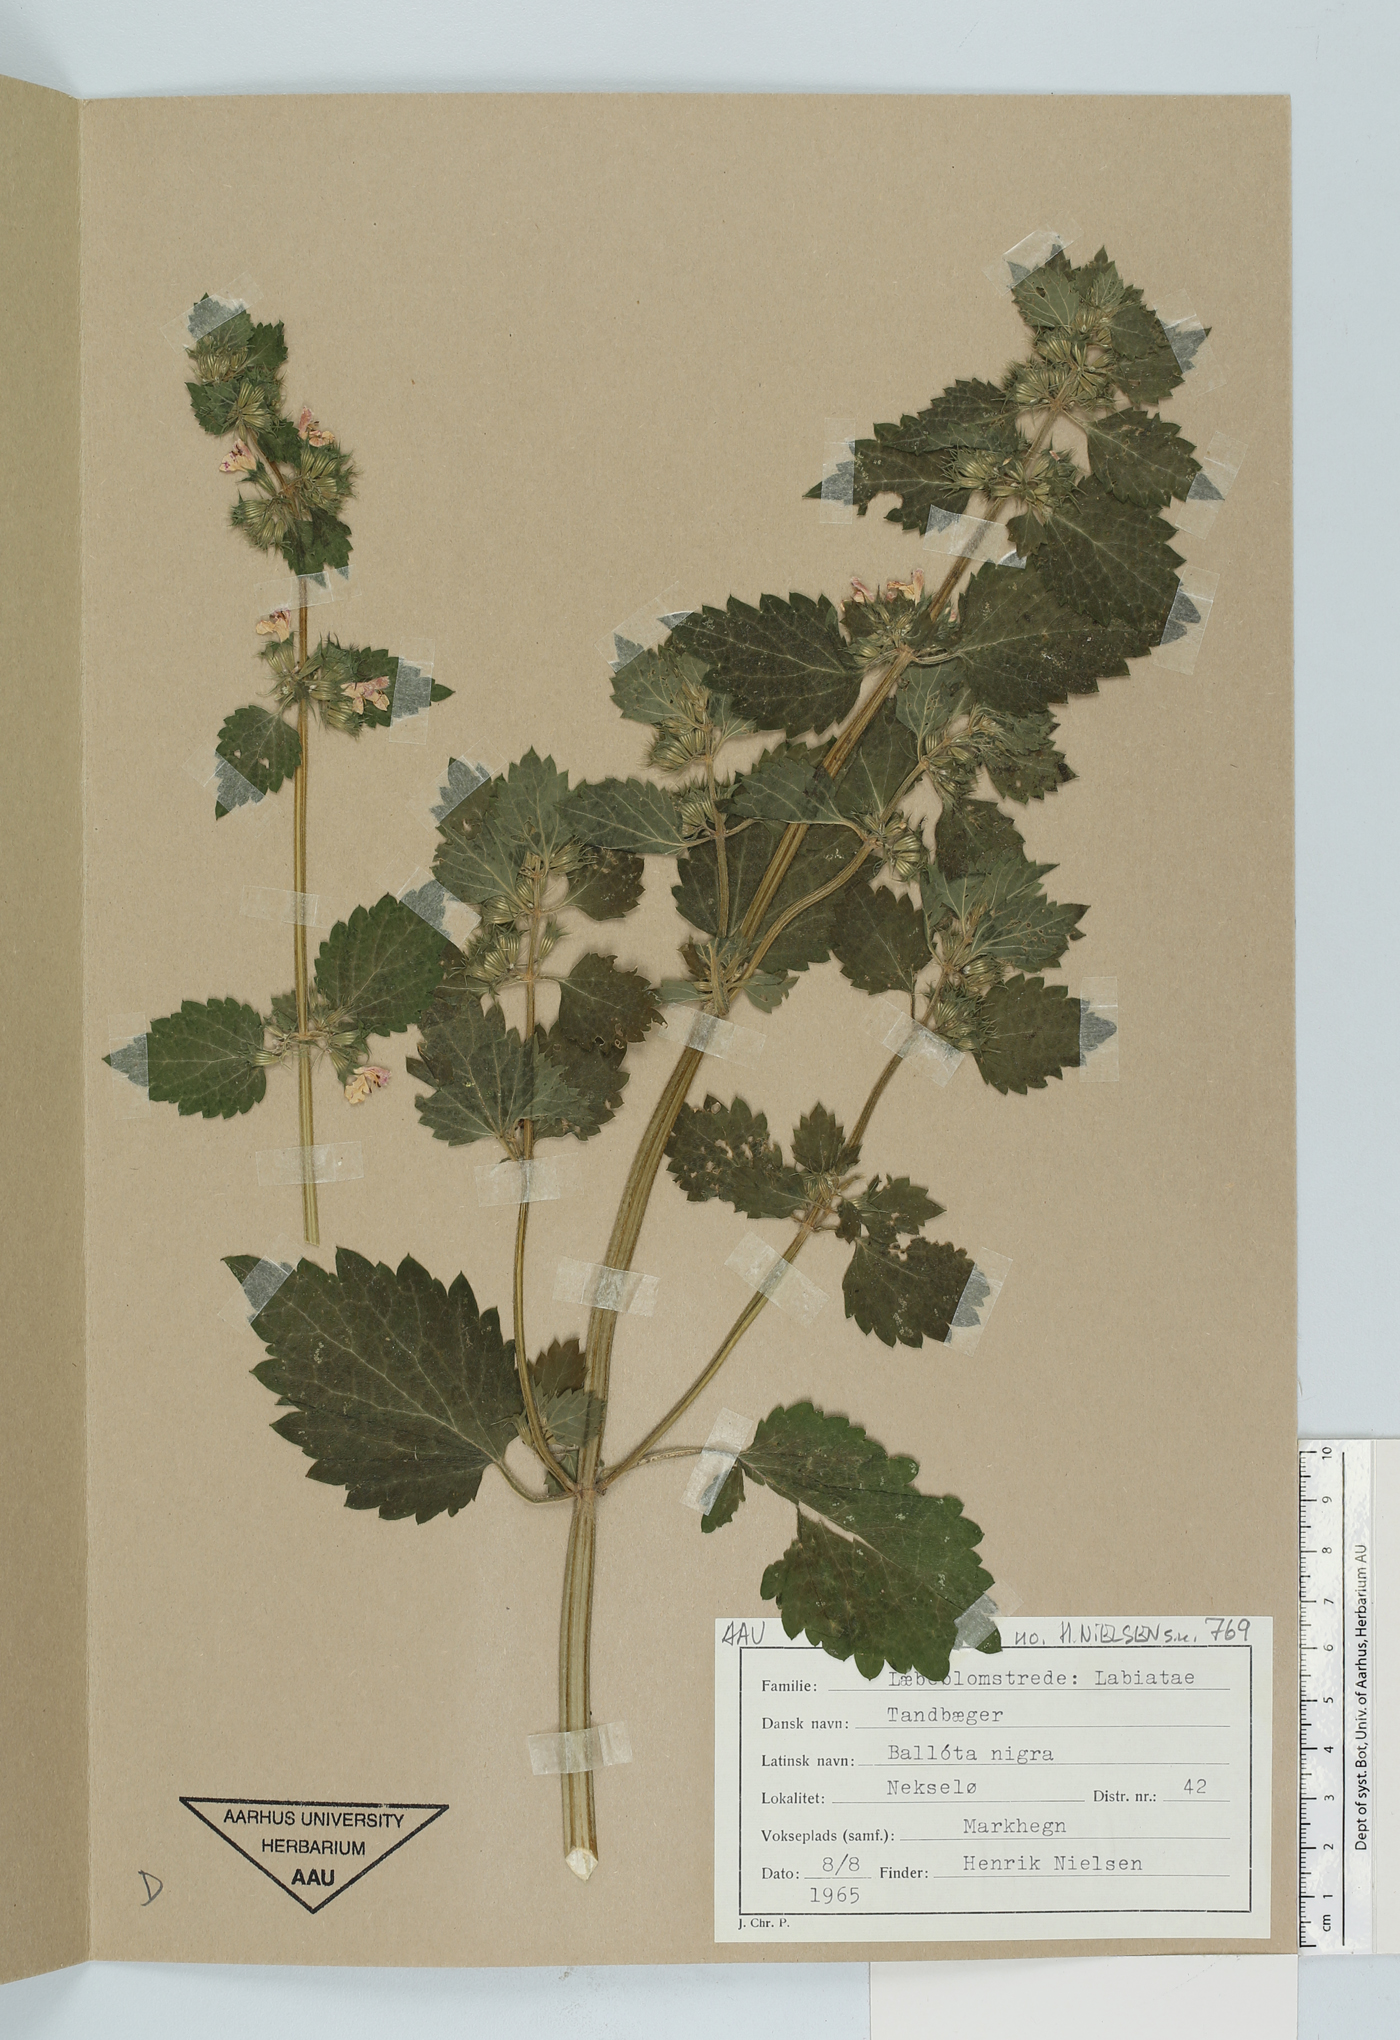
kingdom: Plantae
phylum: Tracheophyta
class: Magnoliopsida
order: Lamiales
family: Lamiaceae
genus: Ballota
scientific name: Ballota nigra
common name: Black horehound
